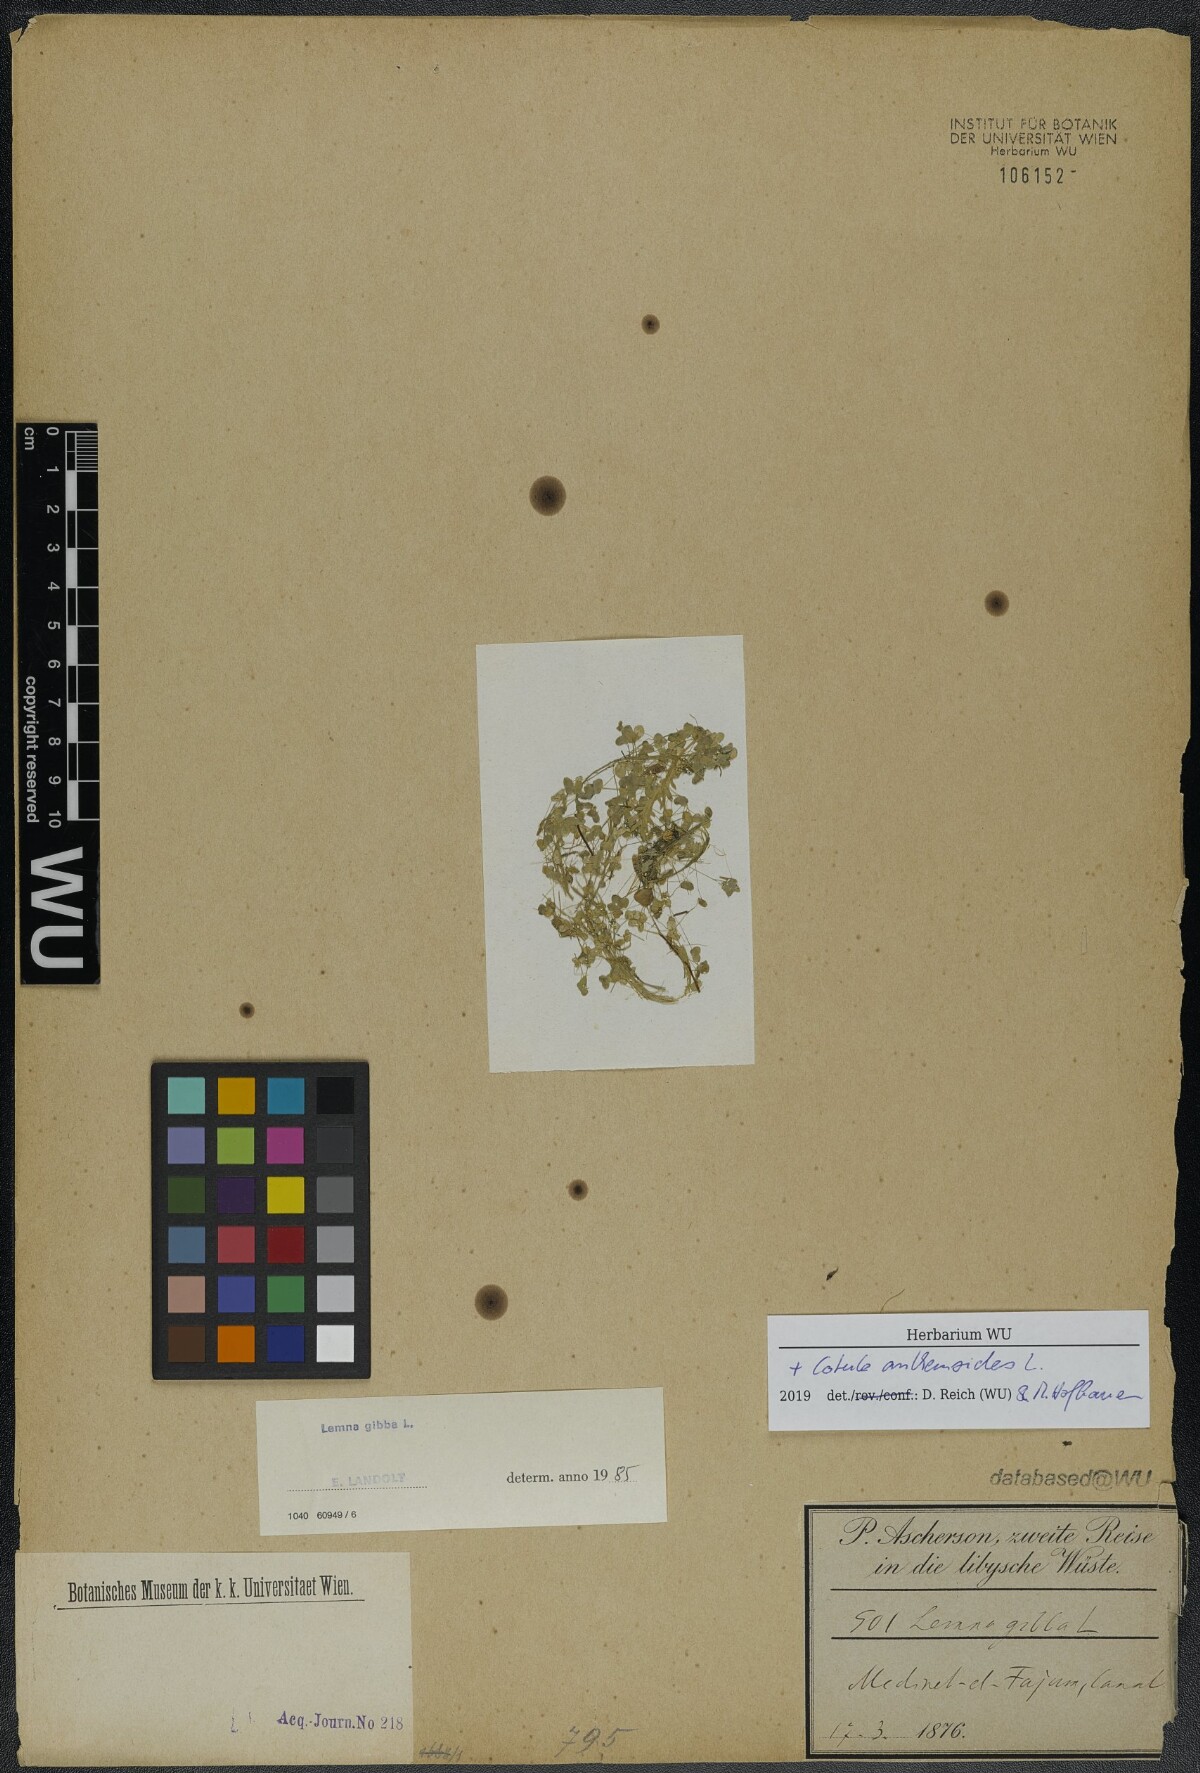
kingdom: Plantae
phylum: Tracheophyta
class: Liliopsida
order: Alismatales
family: Araceae
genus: Lemna
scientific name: Lemna gibba
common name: Fat duckweed
